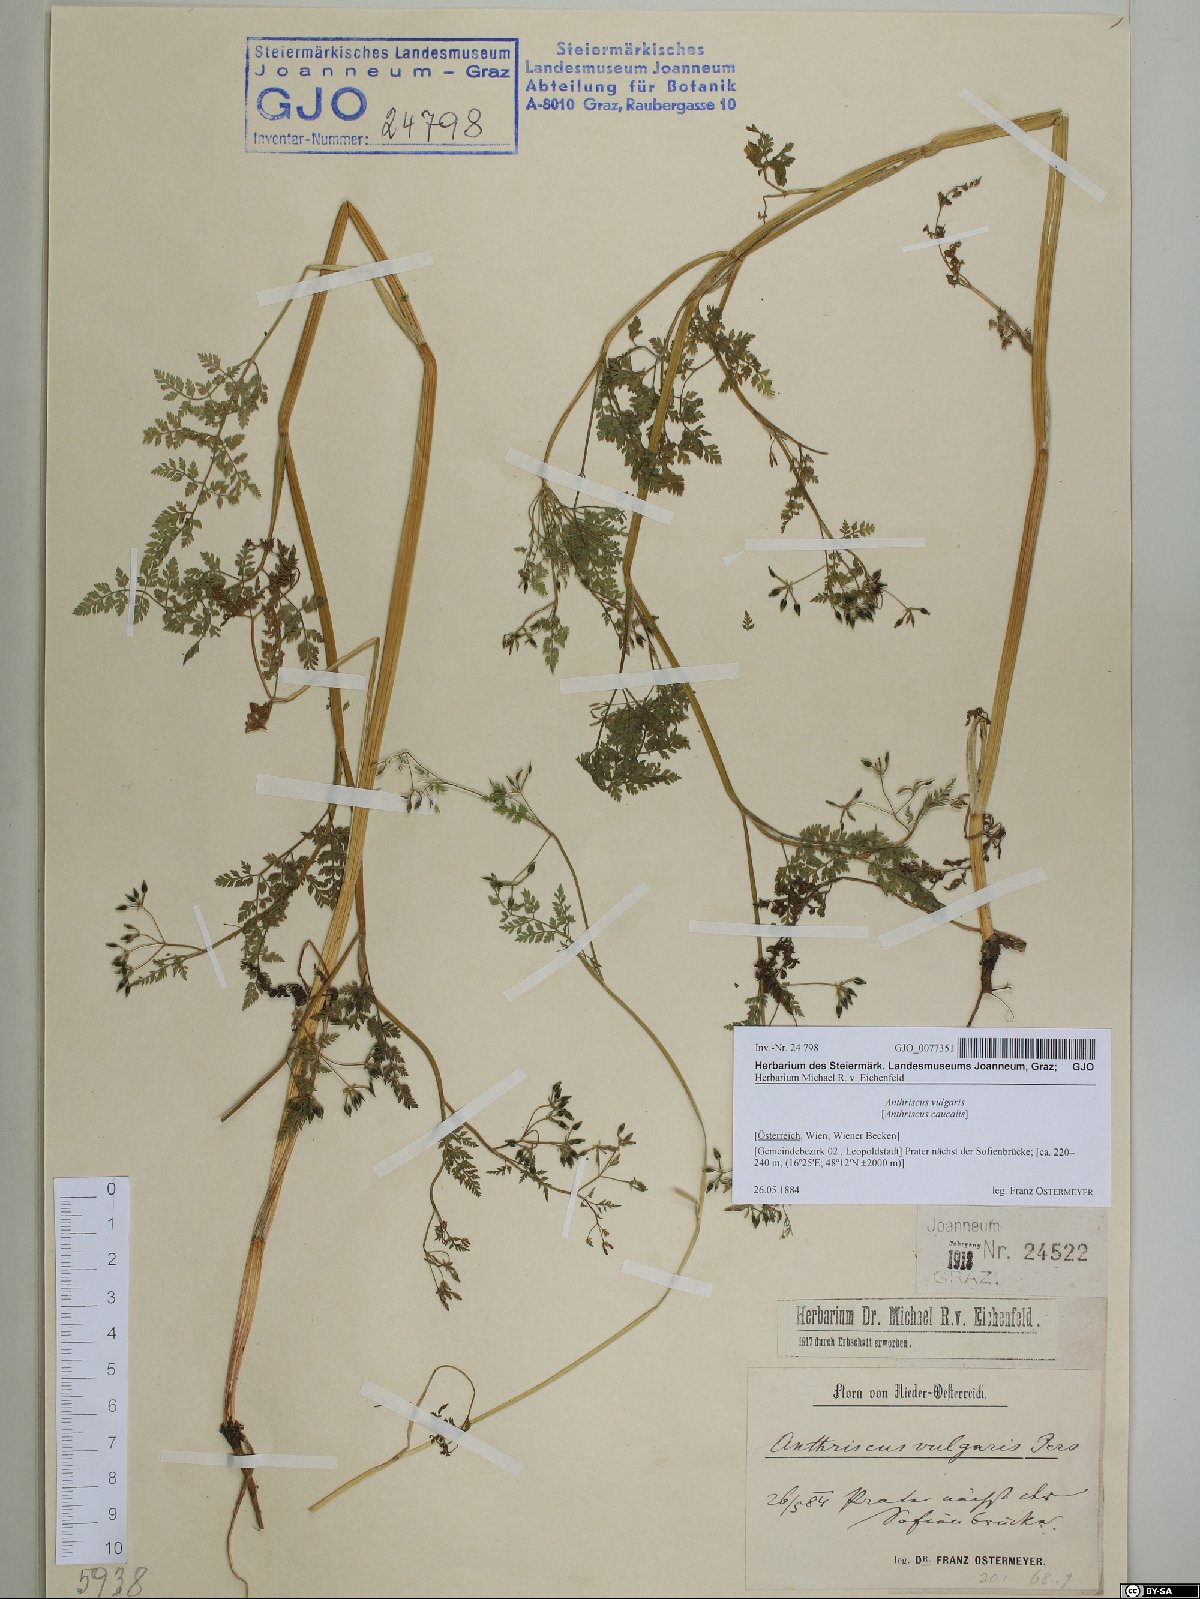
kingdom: Plantae
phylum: Tracheophyta
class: Magnoliopsida
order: Apiales
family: Apiaceae
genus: Anthriscus
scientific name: Anthriscus caucalis
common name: Bur chervil
